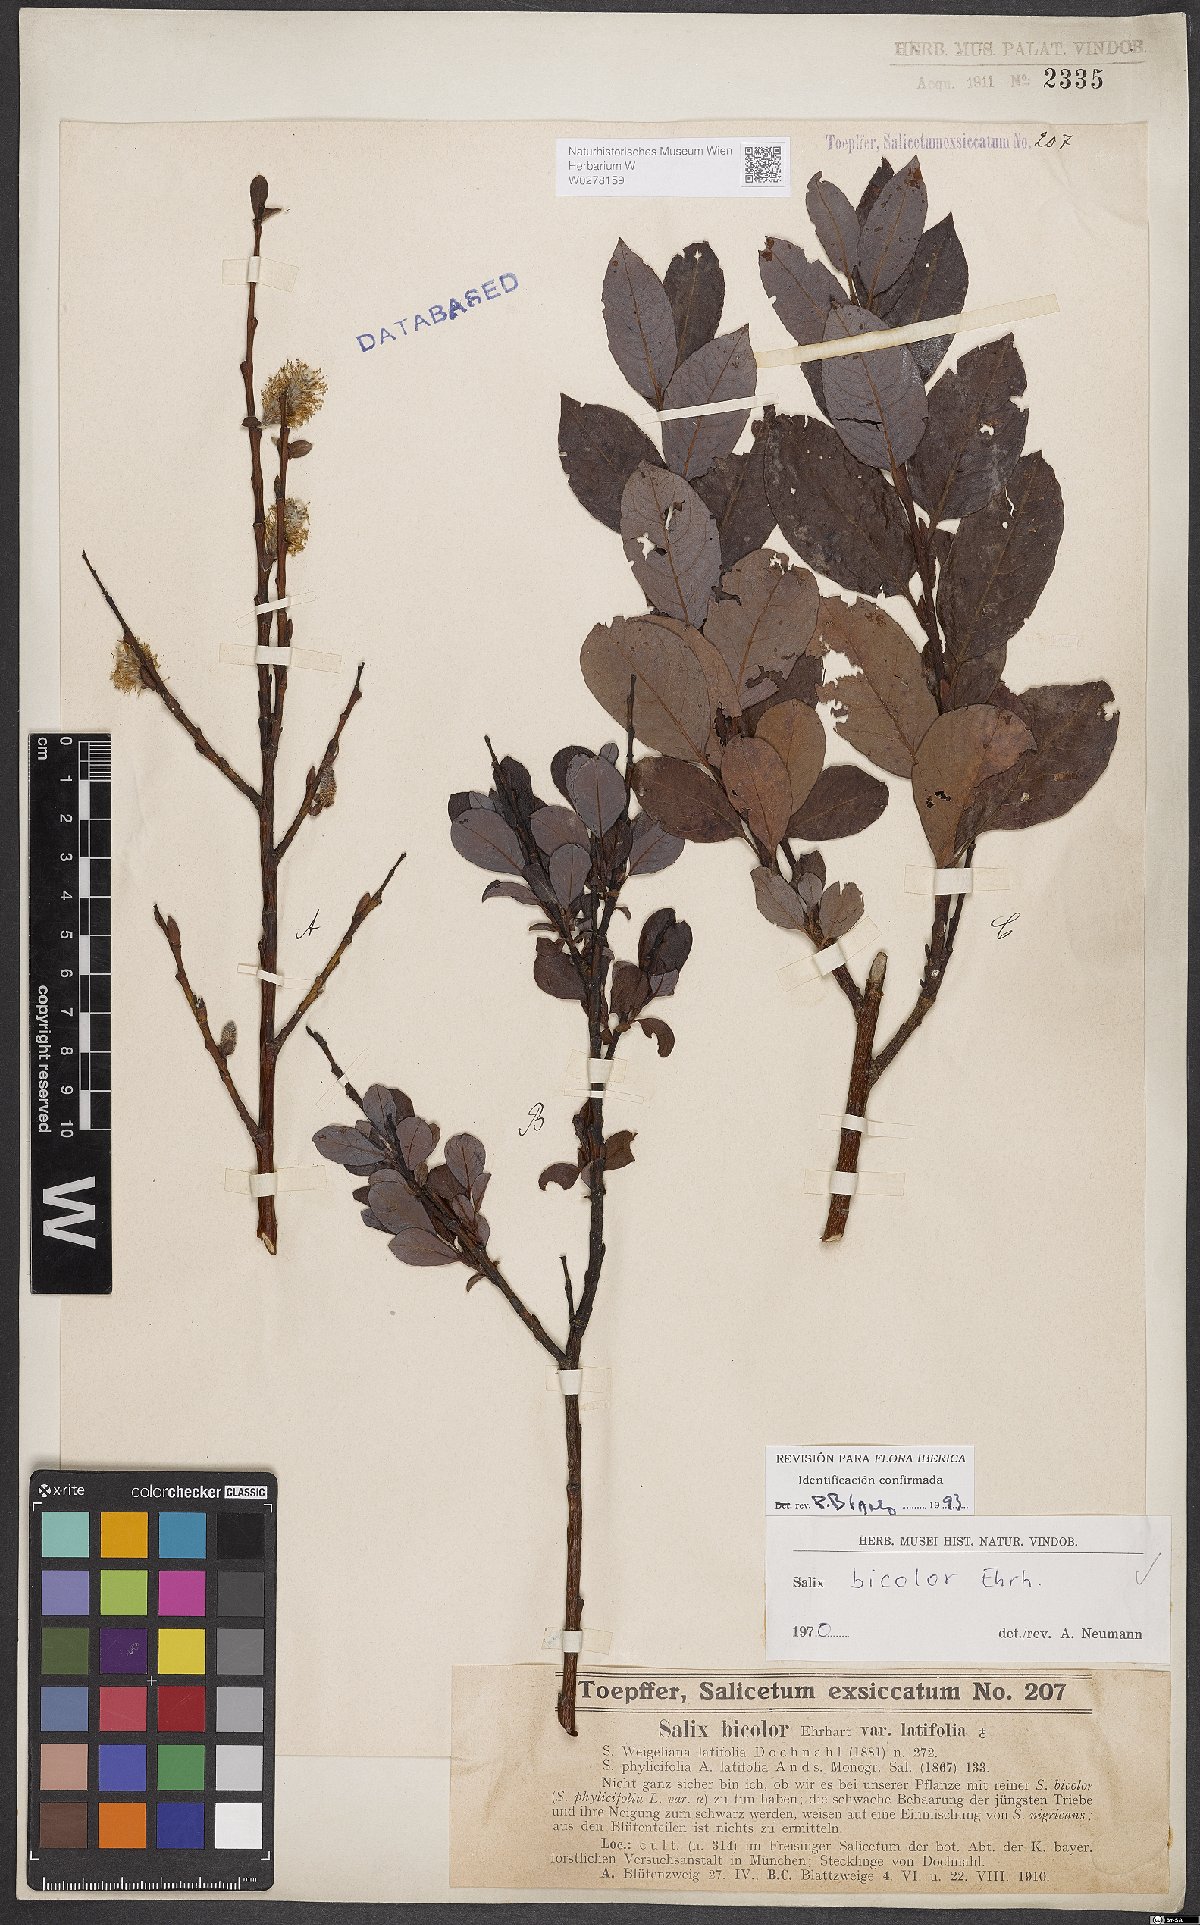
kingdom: Plantae
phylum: Tracheophyta
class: Magnoliopsida
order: Malpighiales
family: Salicaceae
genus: Salix
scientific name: Salix bicolor
